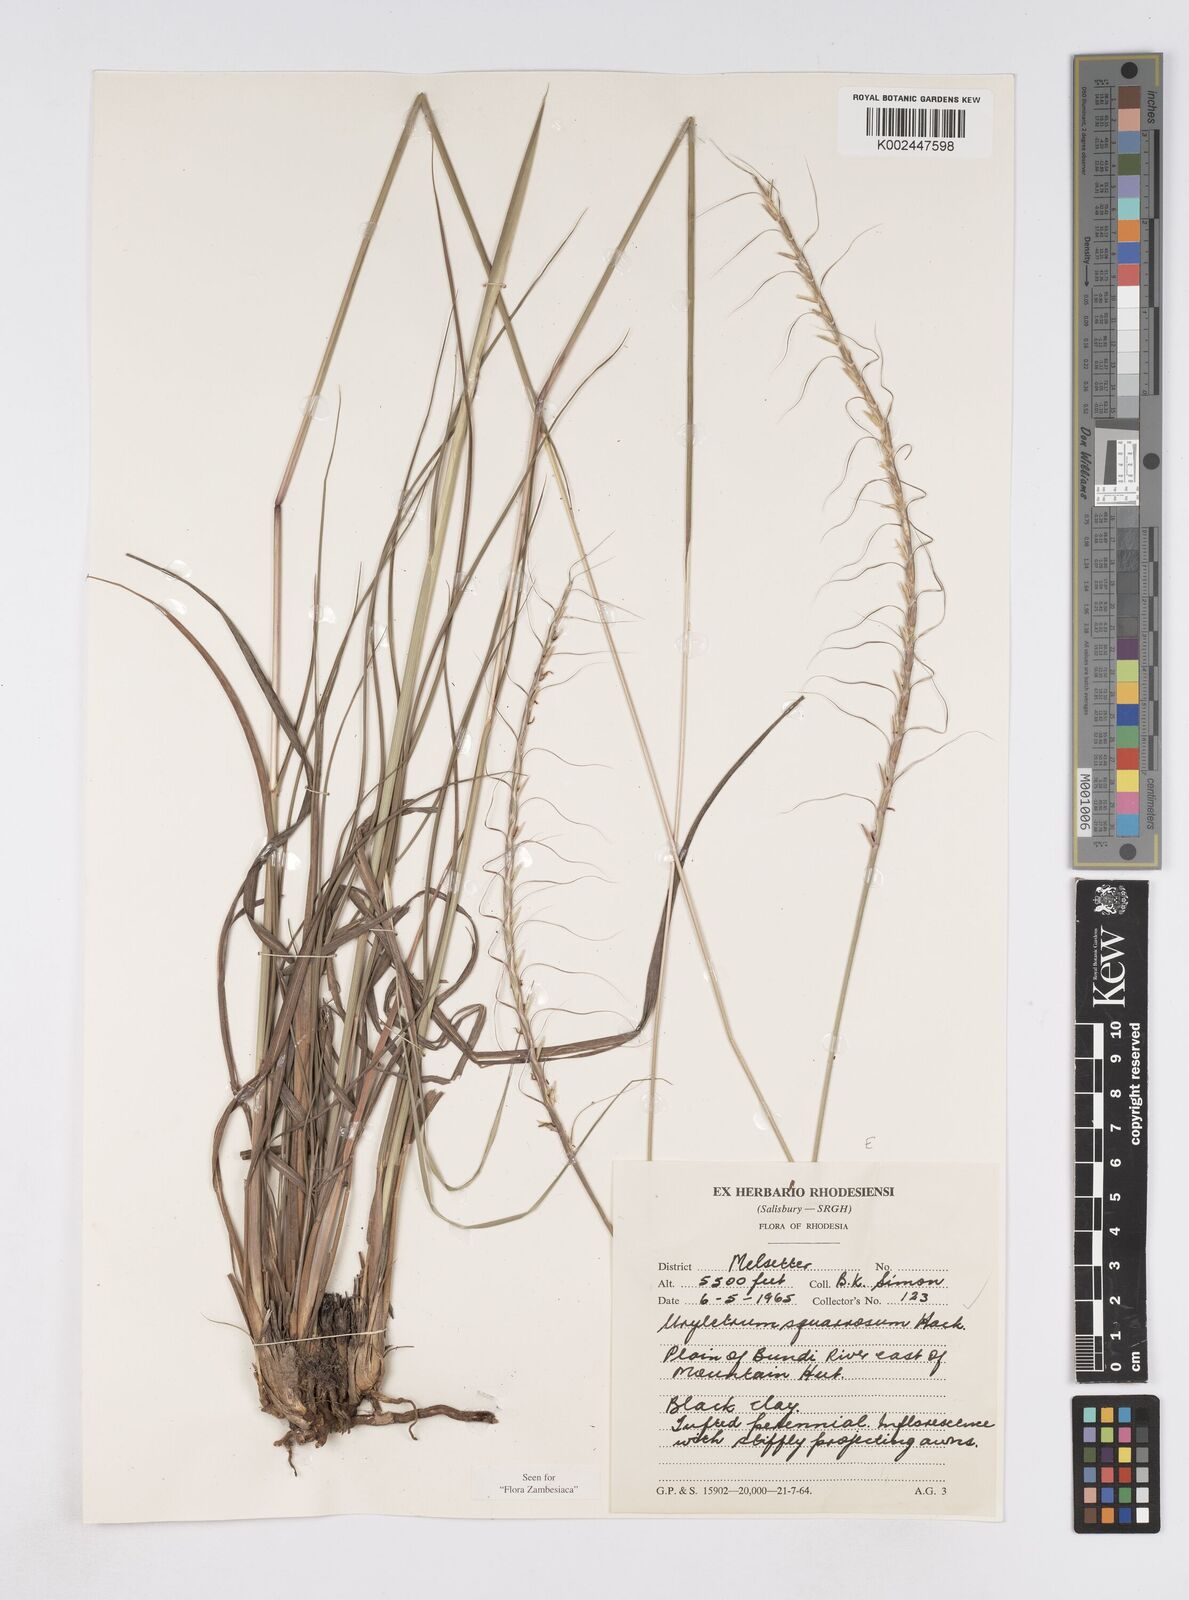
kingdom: Plantae
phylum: Tracheophyta
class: Liliopsida
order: Poales
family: Poaceae
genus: Urelytrum
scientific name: Urelytrum agropyroides
